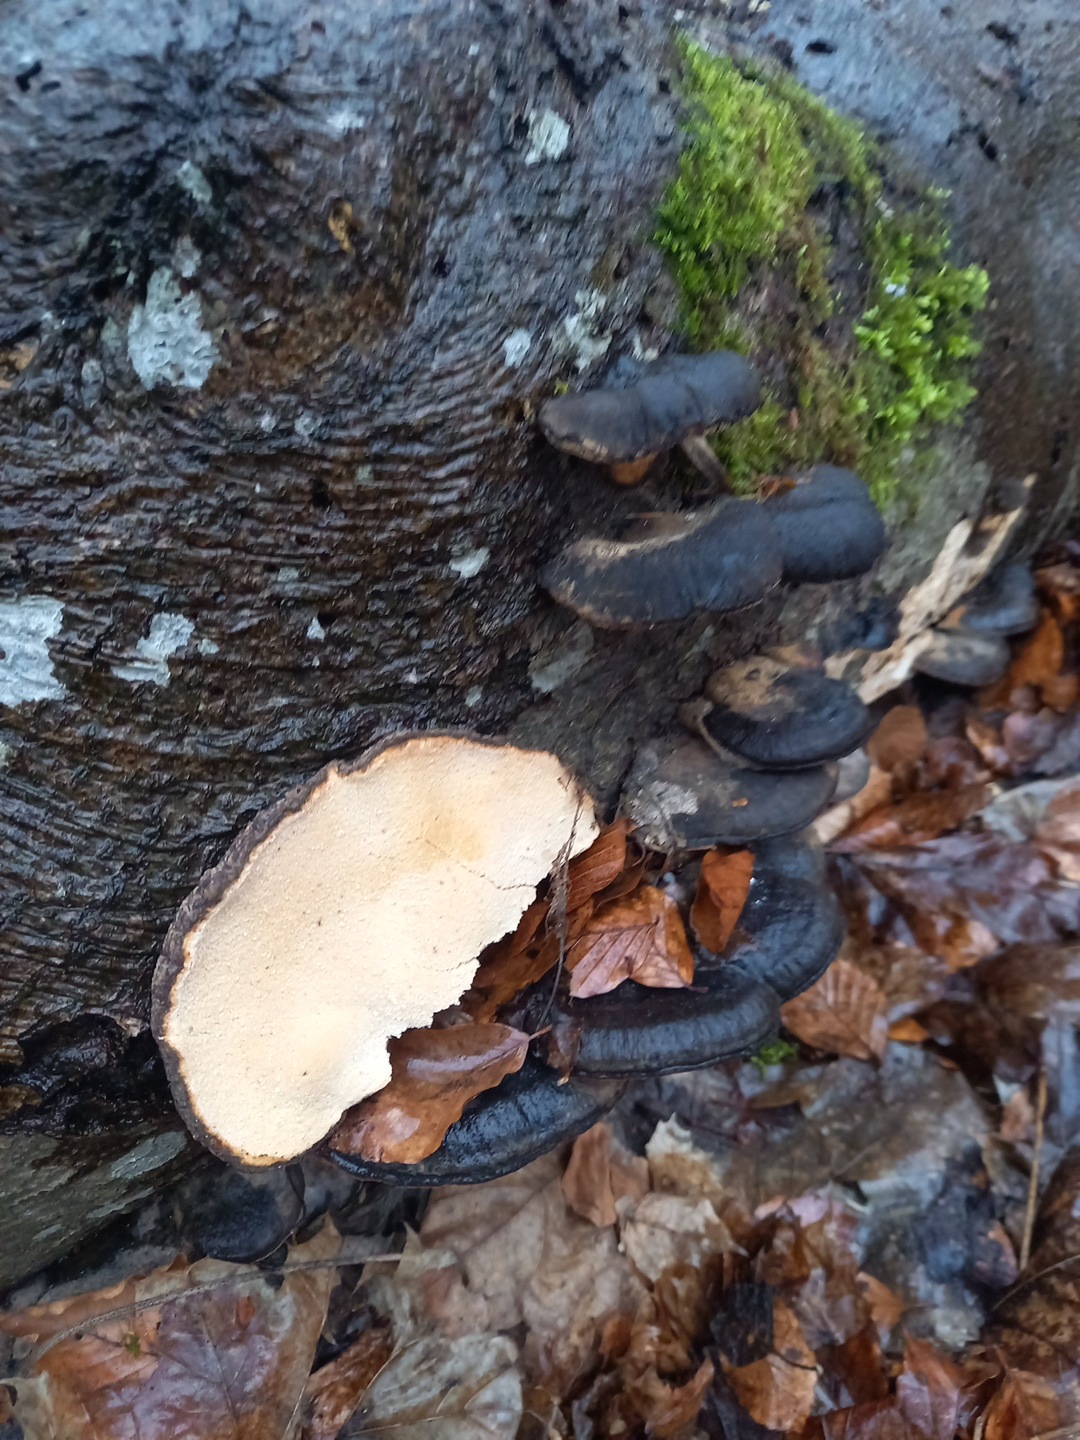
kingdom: Fungi
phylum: Basidiomycota
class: Agaricomycetes
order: Polyporales
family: Ischnodermataceae
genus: Ischnoderma
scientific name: Ischnoderma resinosum
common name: løv-tjæreporesvamp
